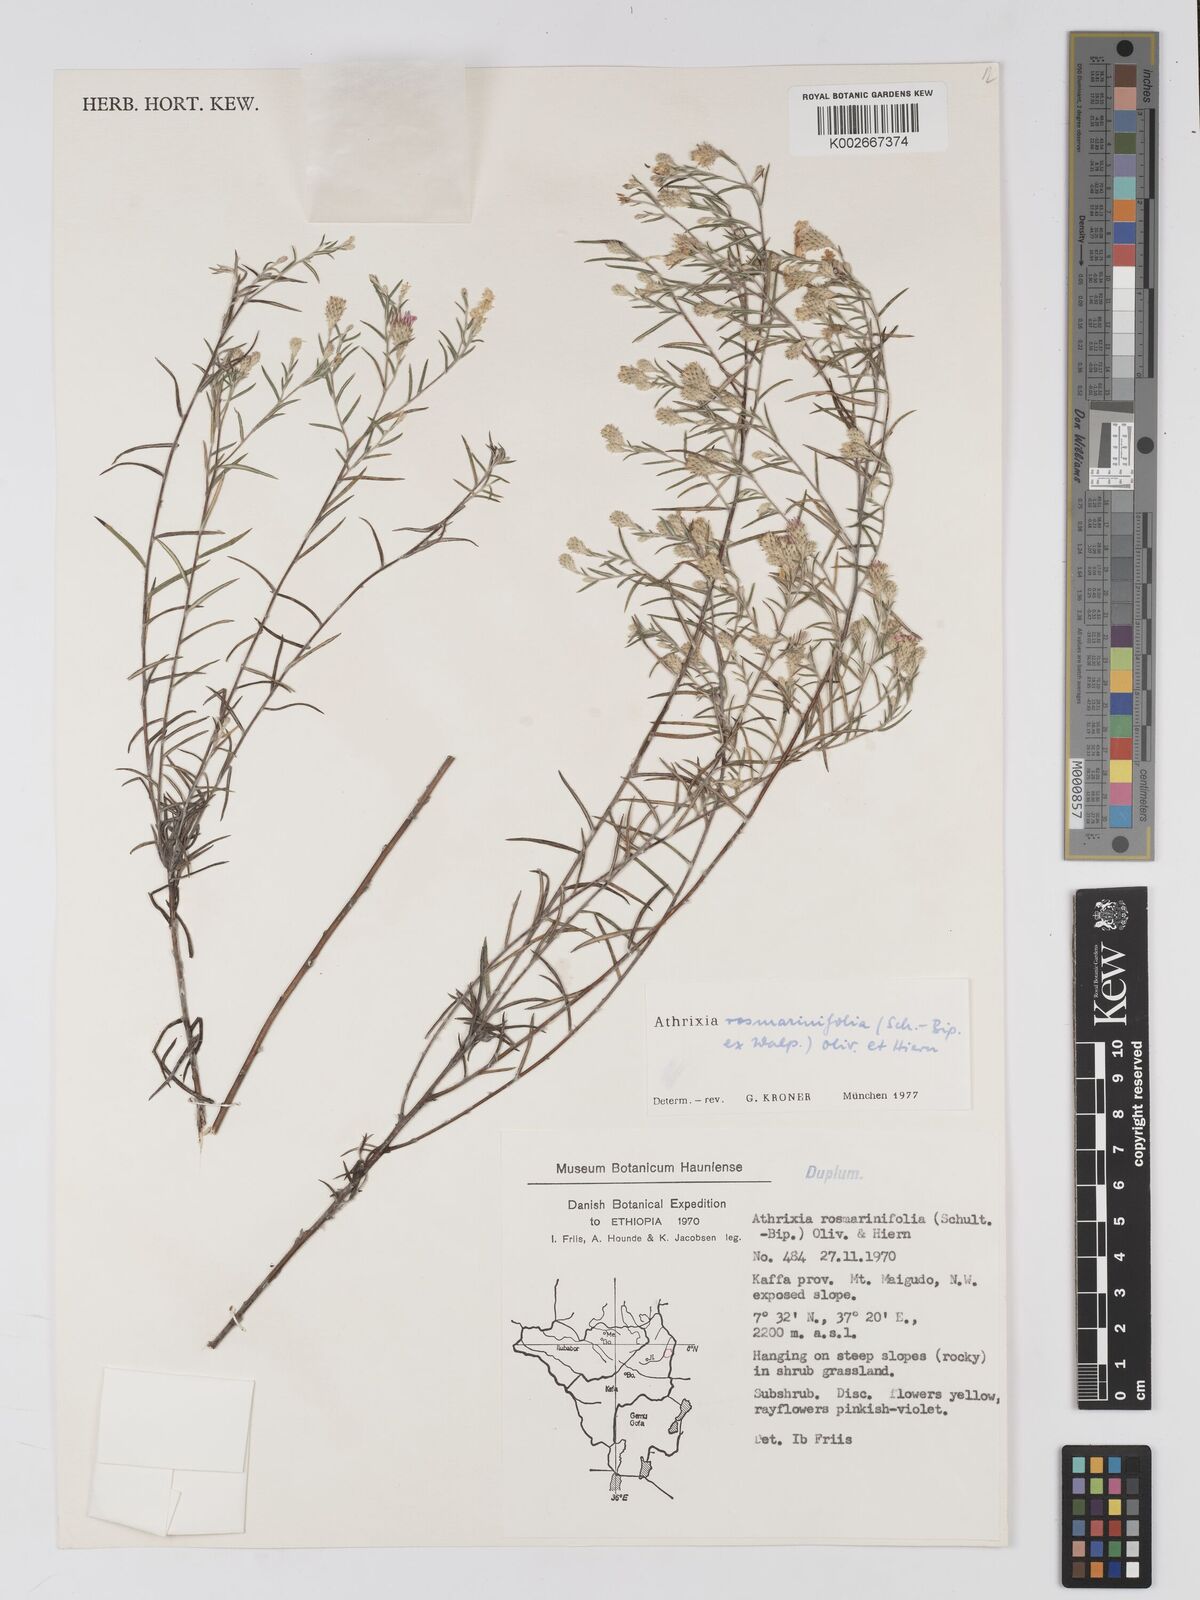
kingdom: Plantae
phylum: Tracheophyta
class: Magnoliopsida
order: Asterales
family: Asteraceae
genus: Athrixia
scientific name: Athrixia rosmarinifolia
